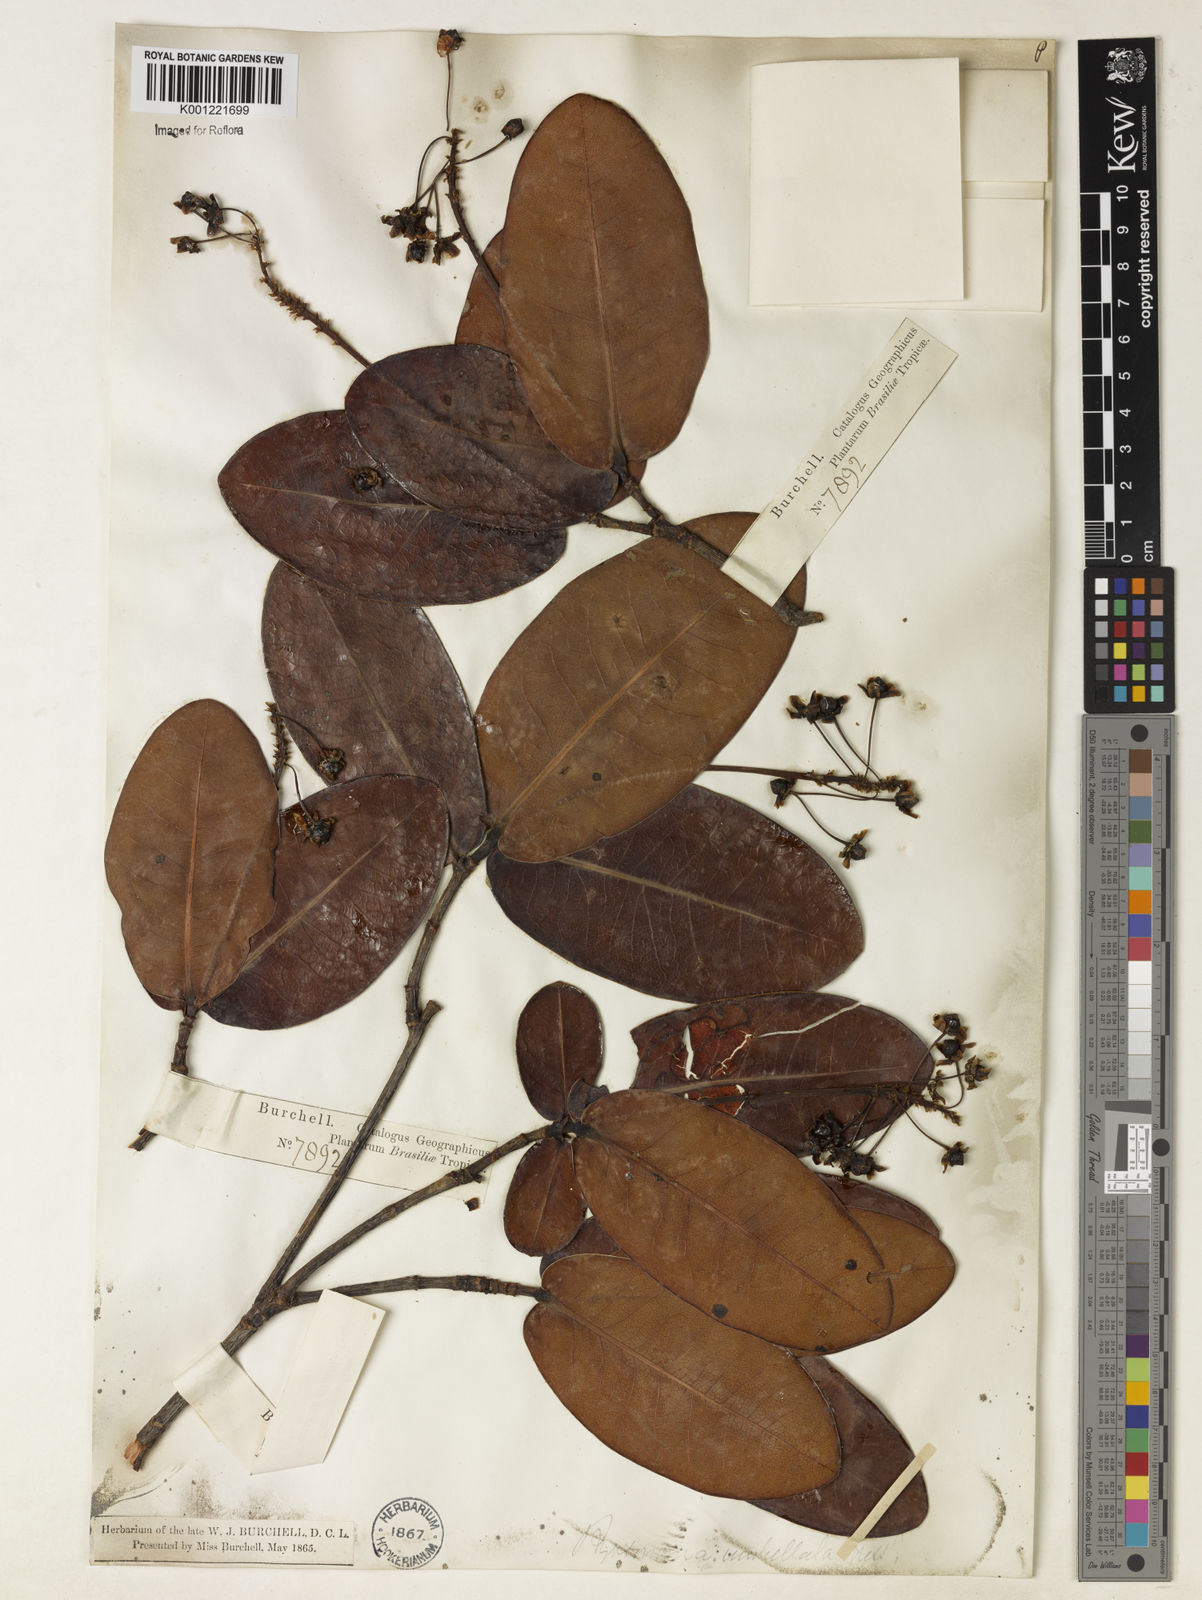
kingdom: Plantae
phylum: Tracheophyta
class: Magnoliopsida
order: Malpighiales
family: Malpighiaceae
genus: Byrsonima
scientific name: Byrsonima umbellata
